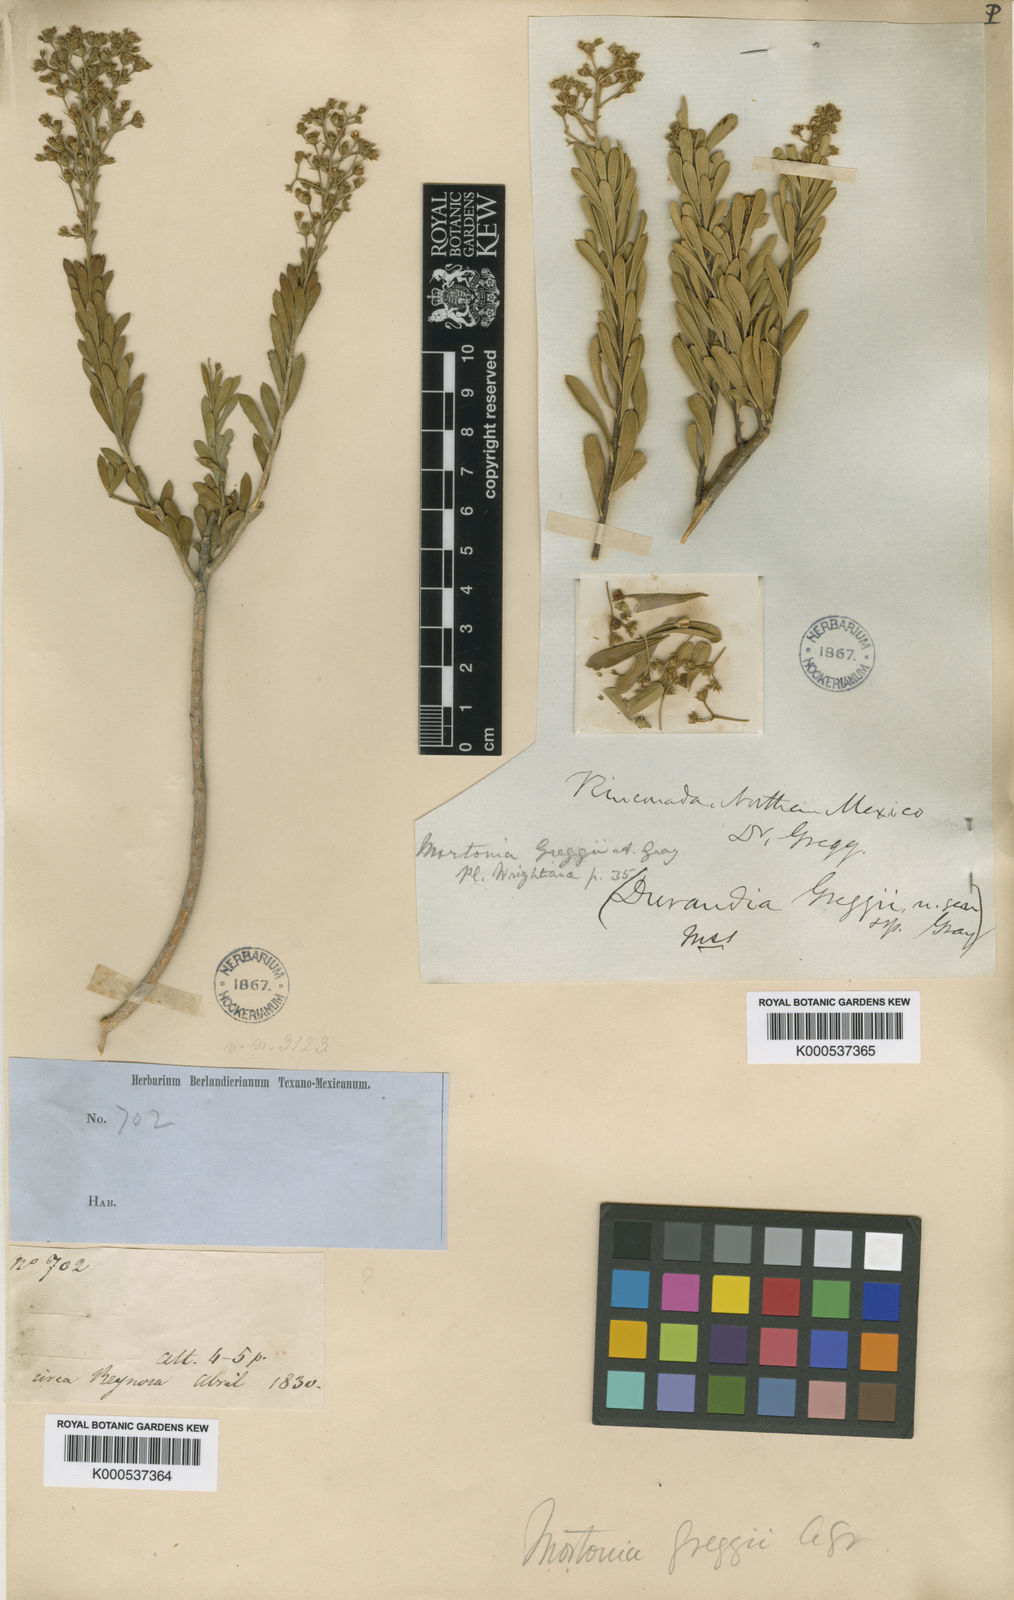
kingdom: Plantae
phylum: Tracheophyta
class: Magnoliopsida
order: Celastrales
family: Celastraceae
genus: Mortonia
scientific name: Mortonia greggii
